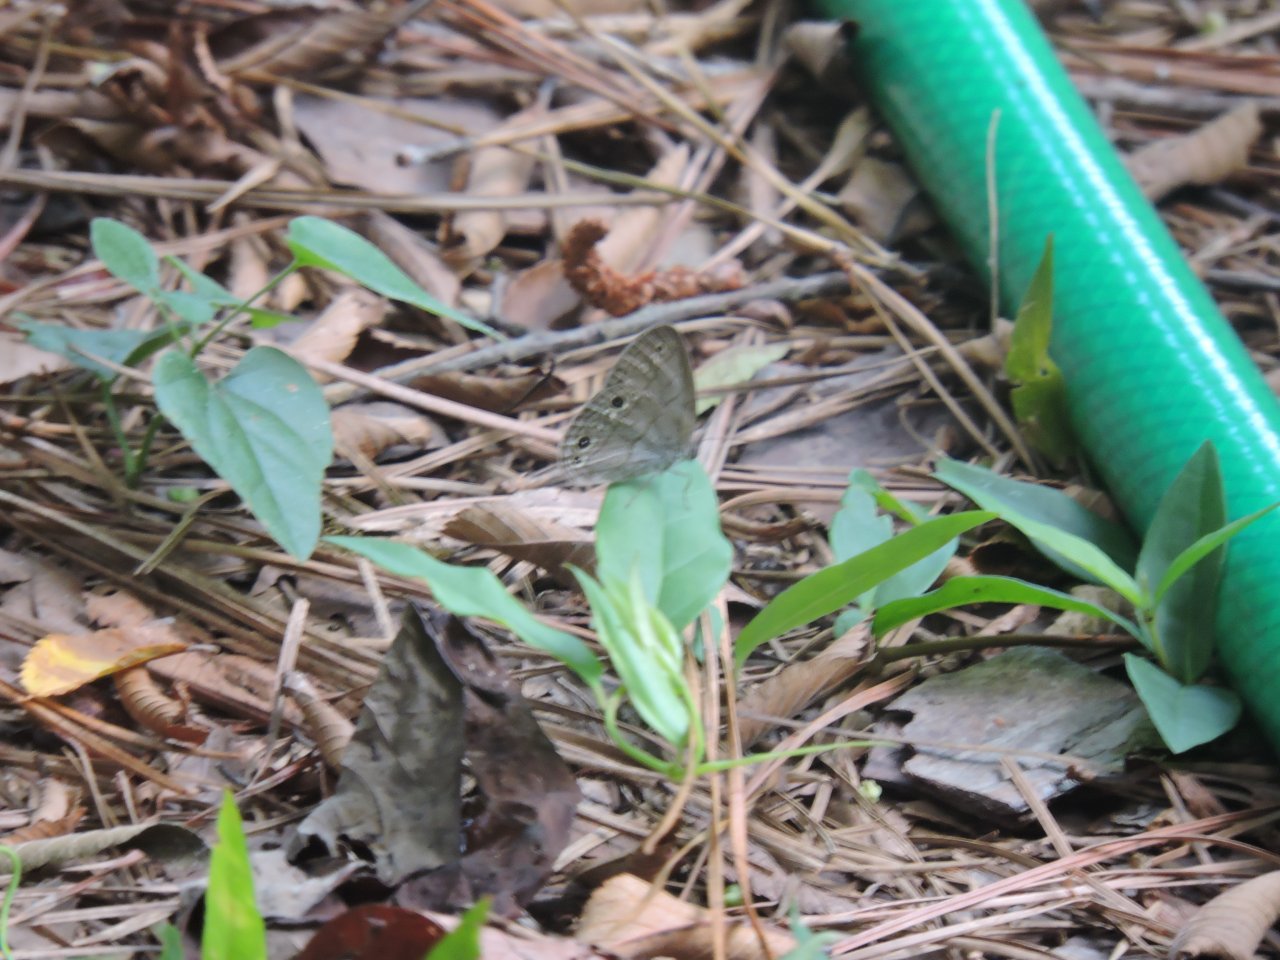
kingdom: Animalia
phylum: Arthropoda
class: Insecta
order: Lepidoptera
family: Nymphalidae
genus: Hermeuptychia
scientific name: Hermeuptychia hermes
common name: Carolina Satyr
